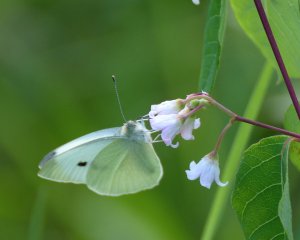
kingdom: Animalia
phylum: Arthropoda
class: Insecta
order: Lepidoptera
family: Pieridae
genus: Pieris
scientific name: Pieris rapae
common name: Cabbage White
